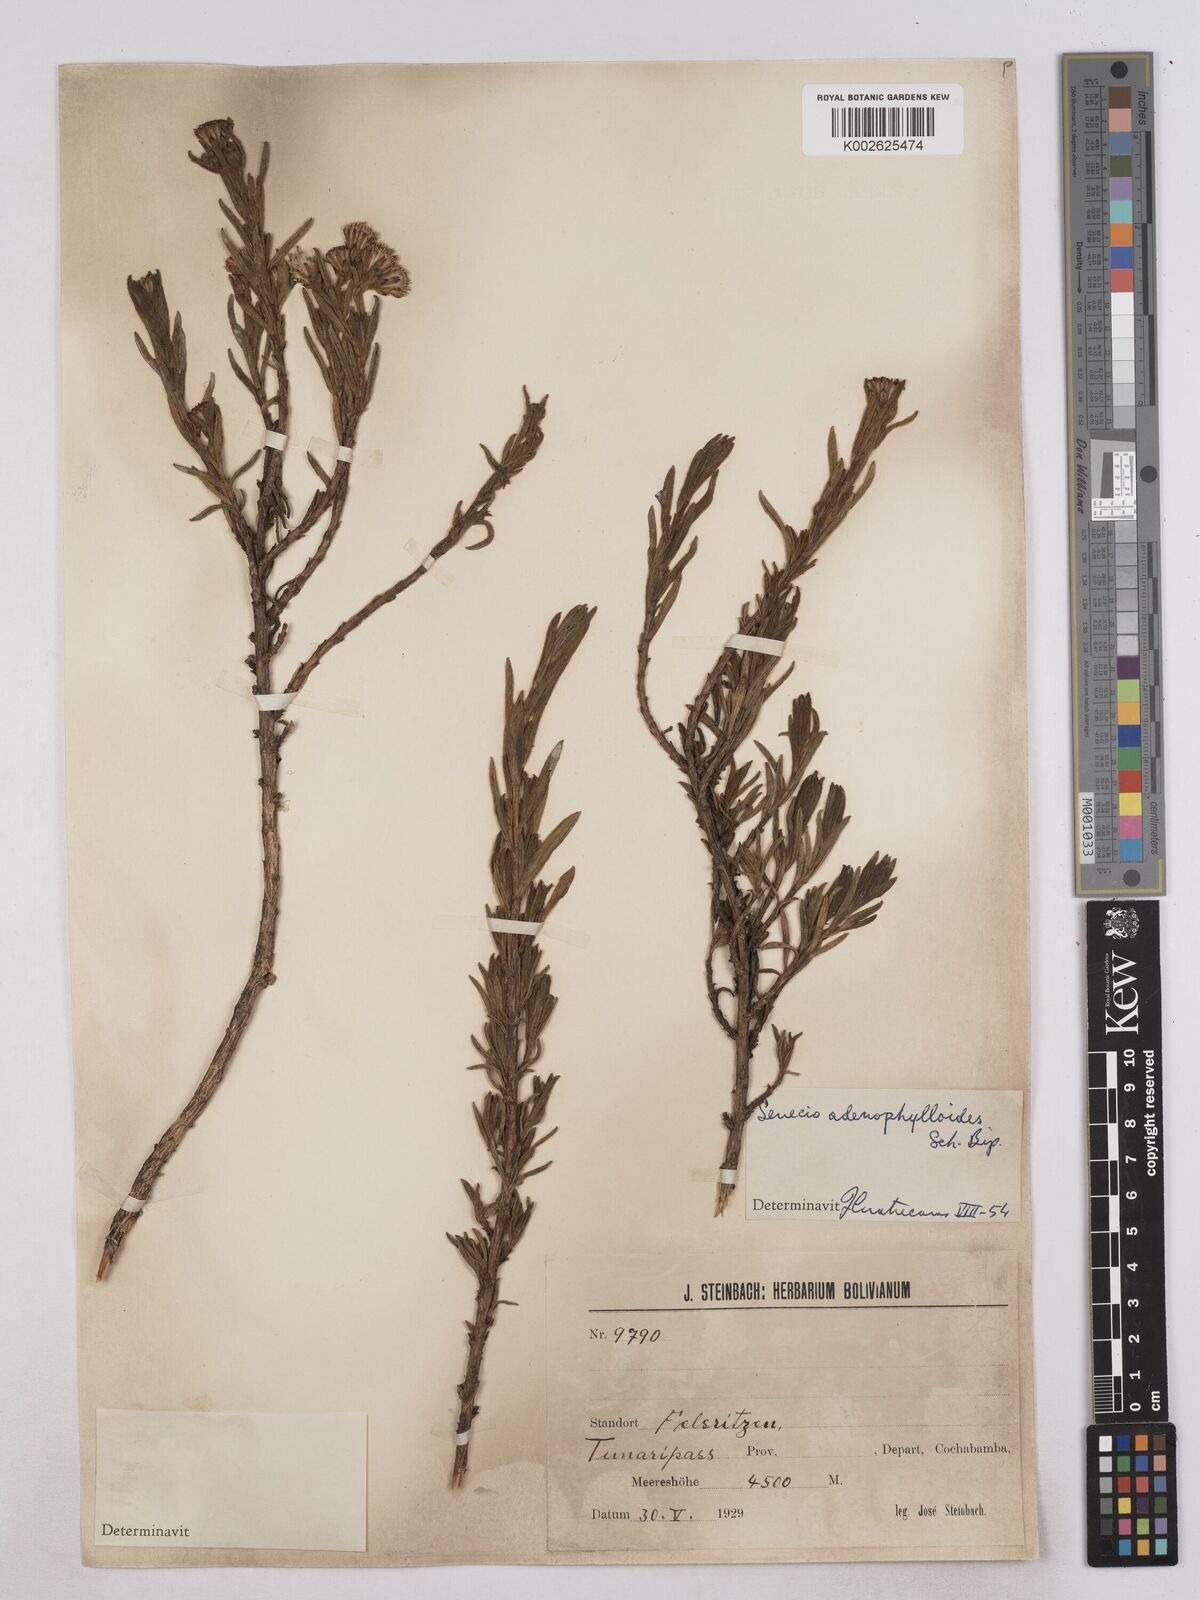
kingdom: Plantae
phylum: Tracheophyta
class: Magnoliopsida
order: Asterales
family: Asteraceae
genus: Culcitium
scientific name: Culcitium canescens
